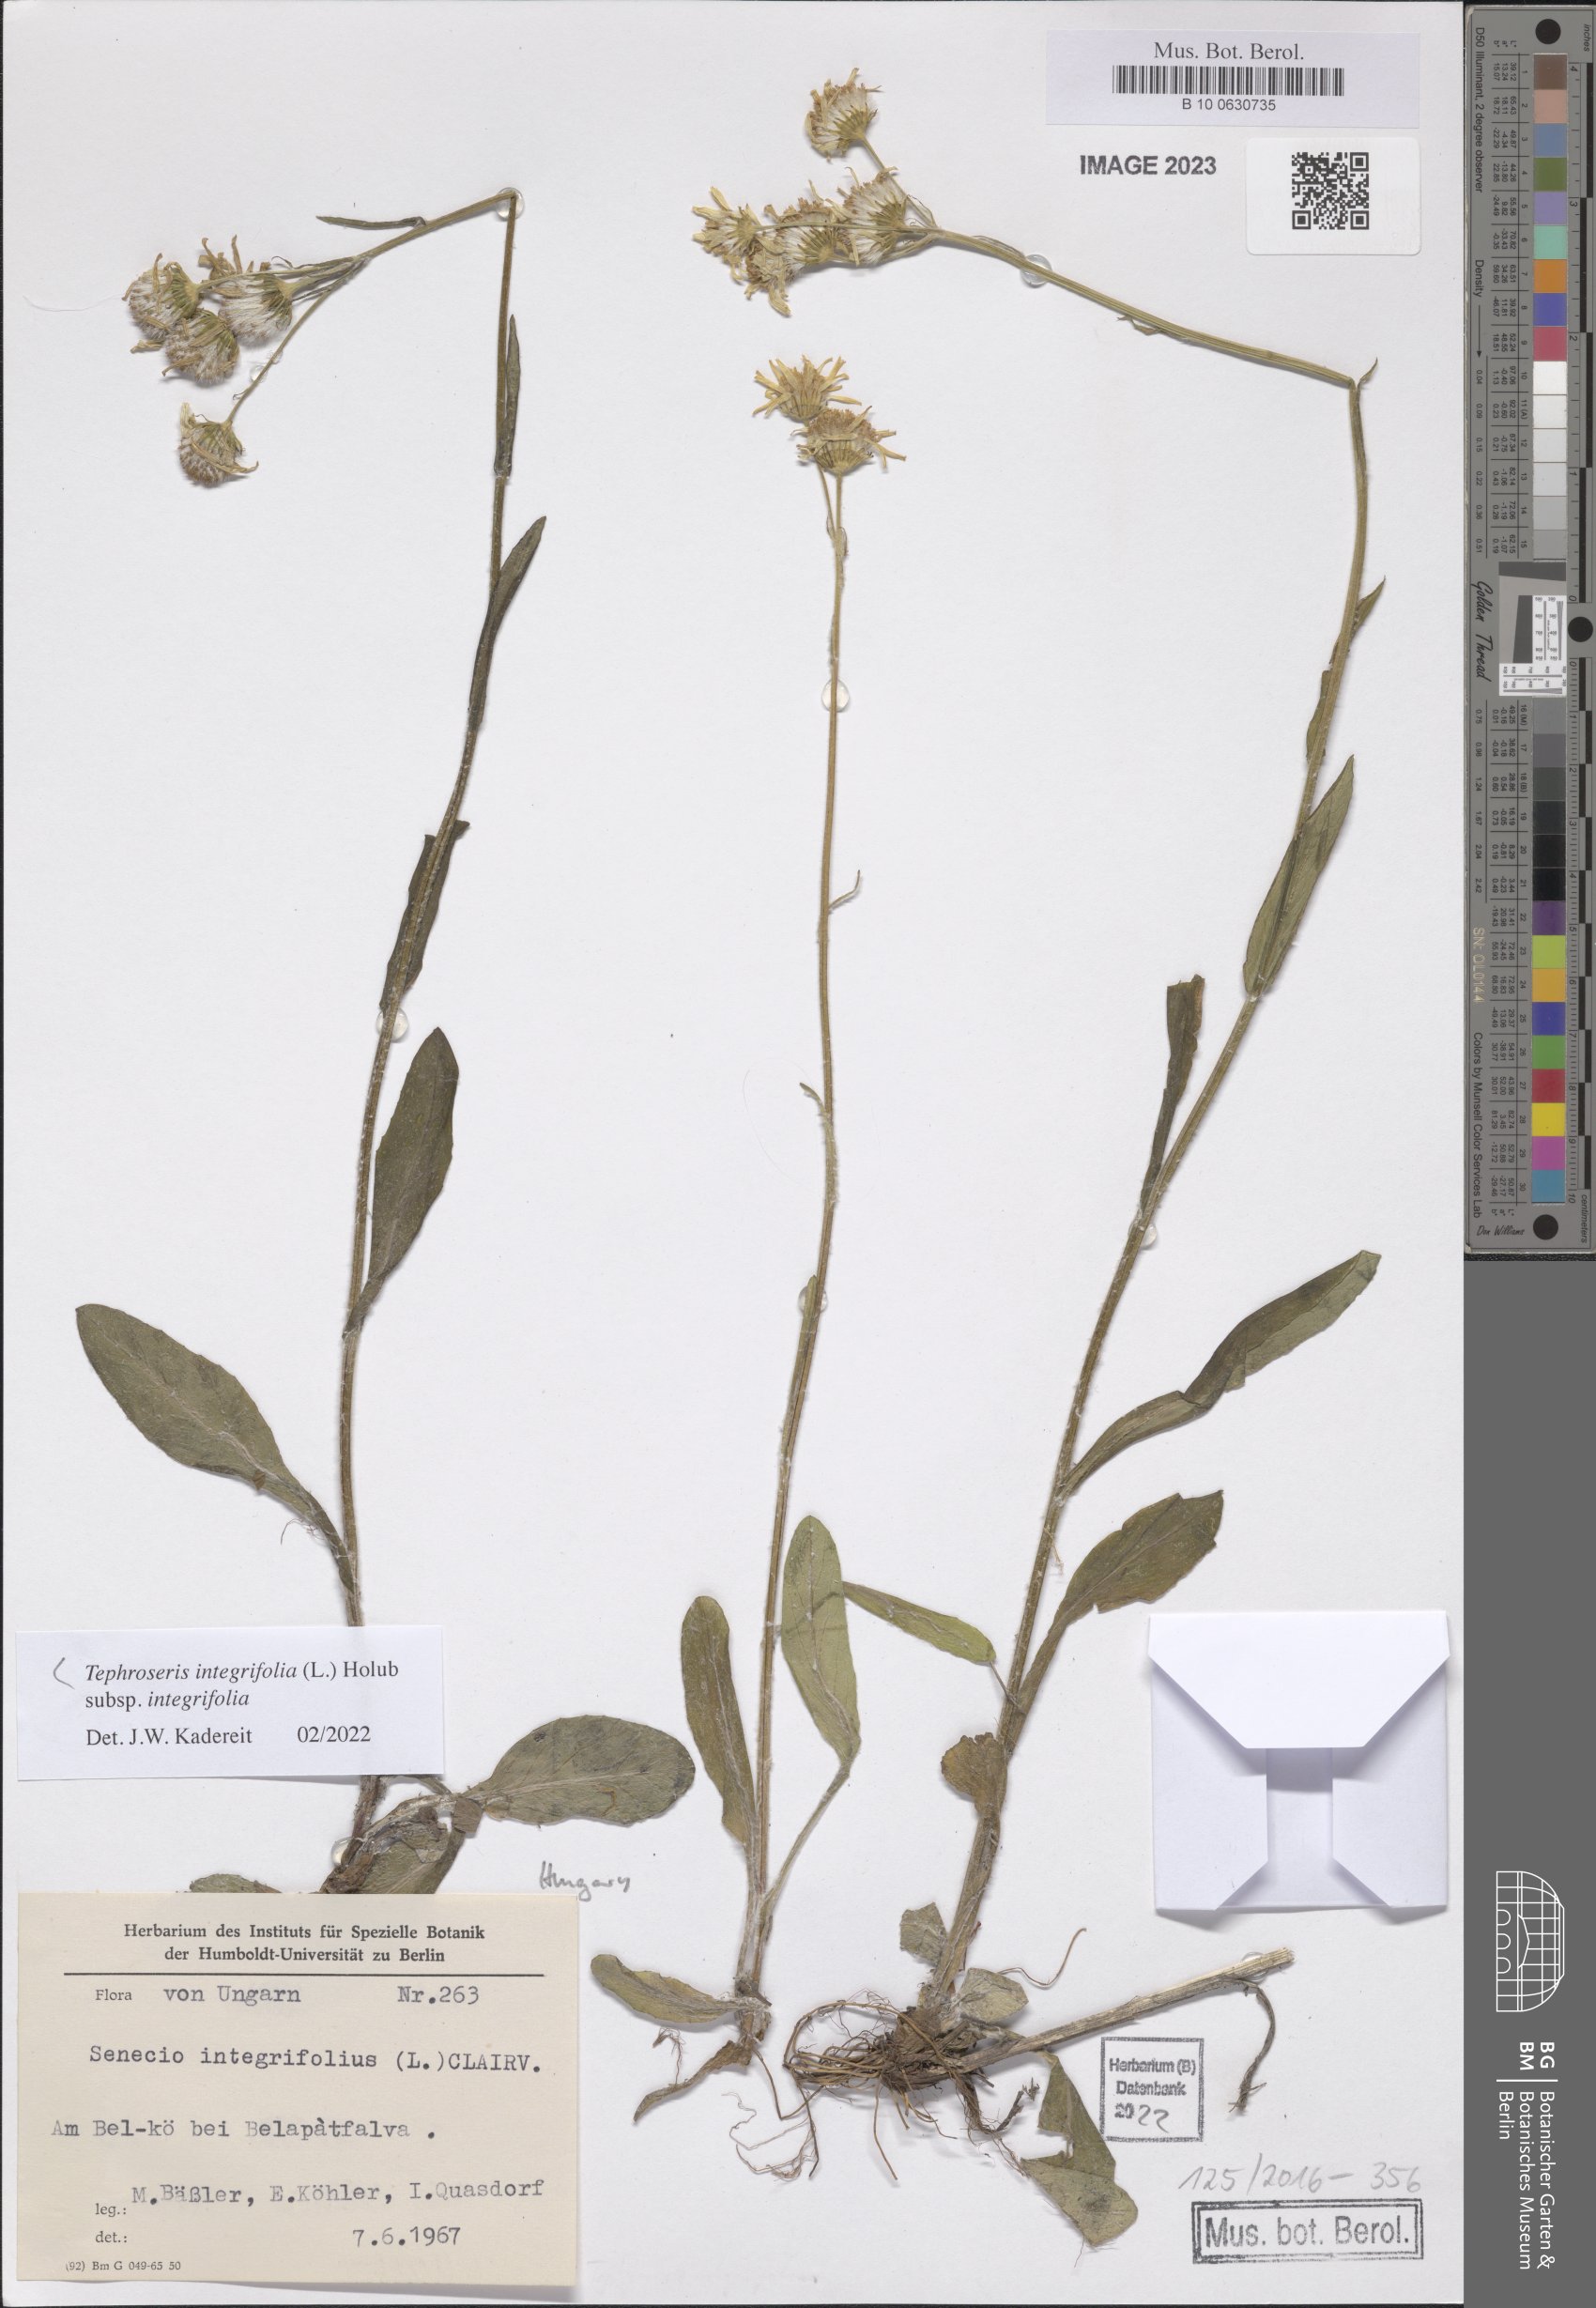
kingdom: Plantae
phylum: Tracheophyta
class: Magnoliopsida
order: Asterales
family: Asteraceae
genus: Tephroseris
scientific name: Tephroseris integrifolia
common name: Field fleawort
